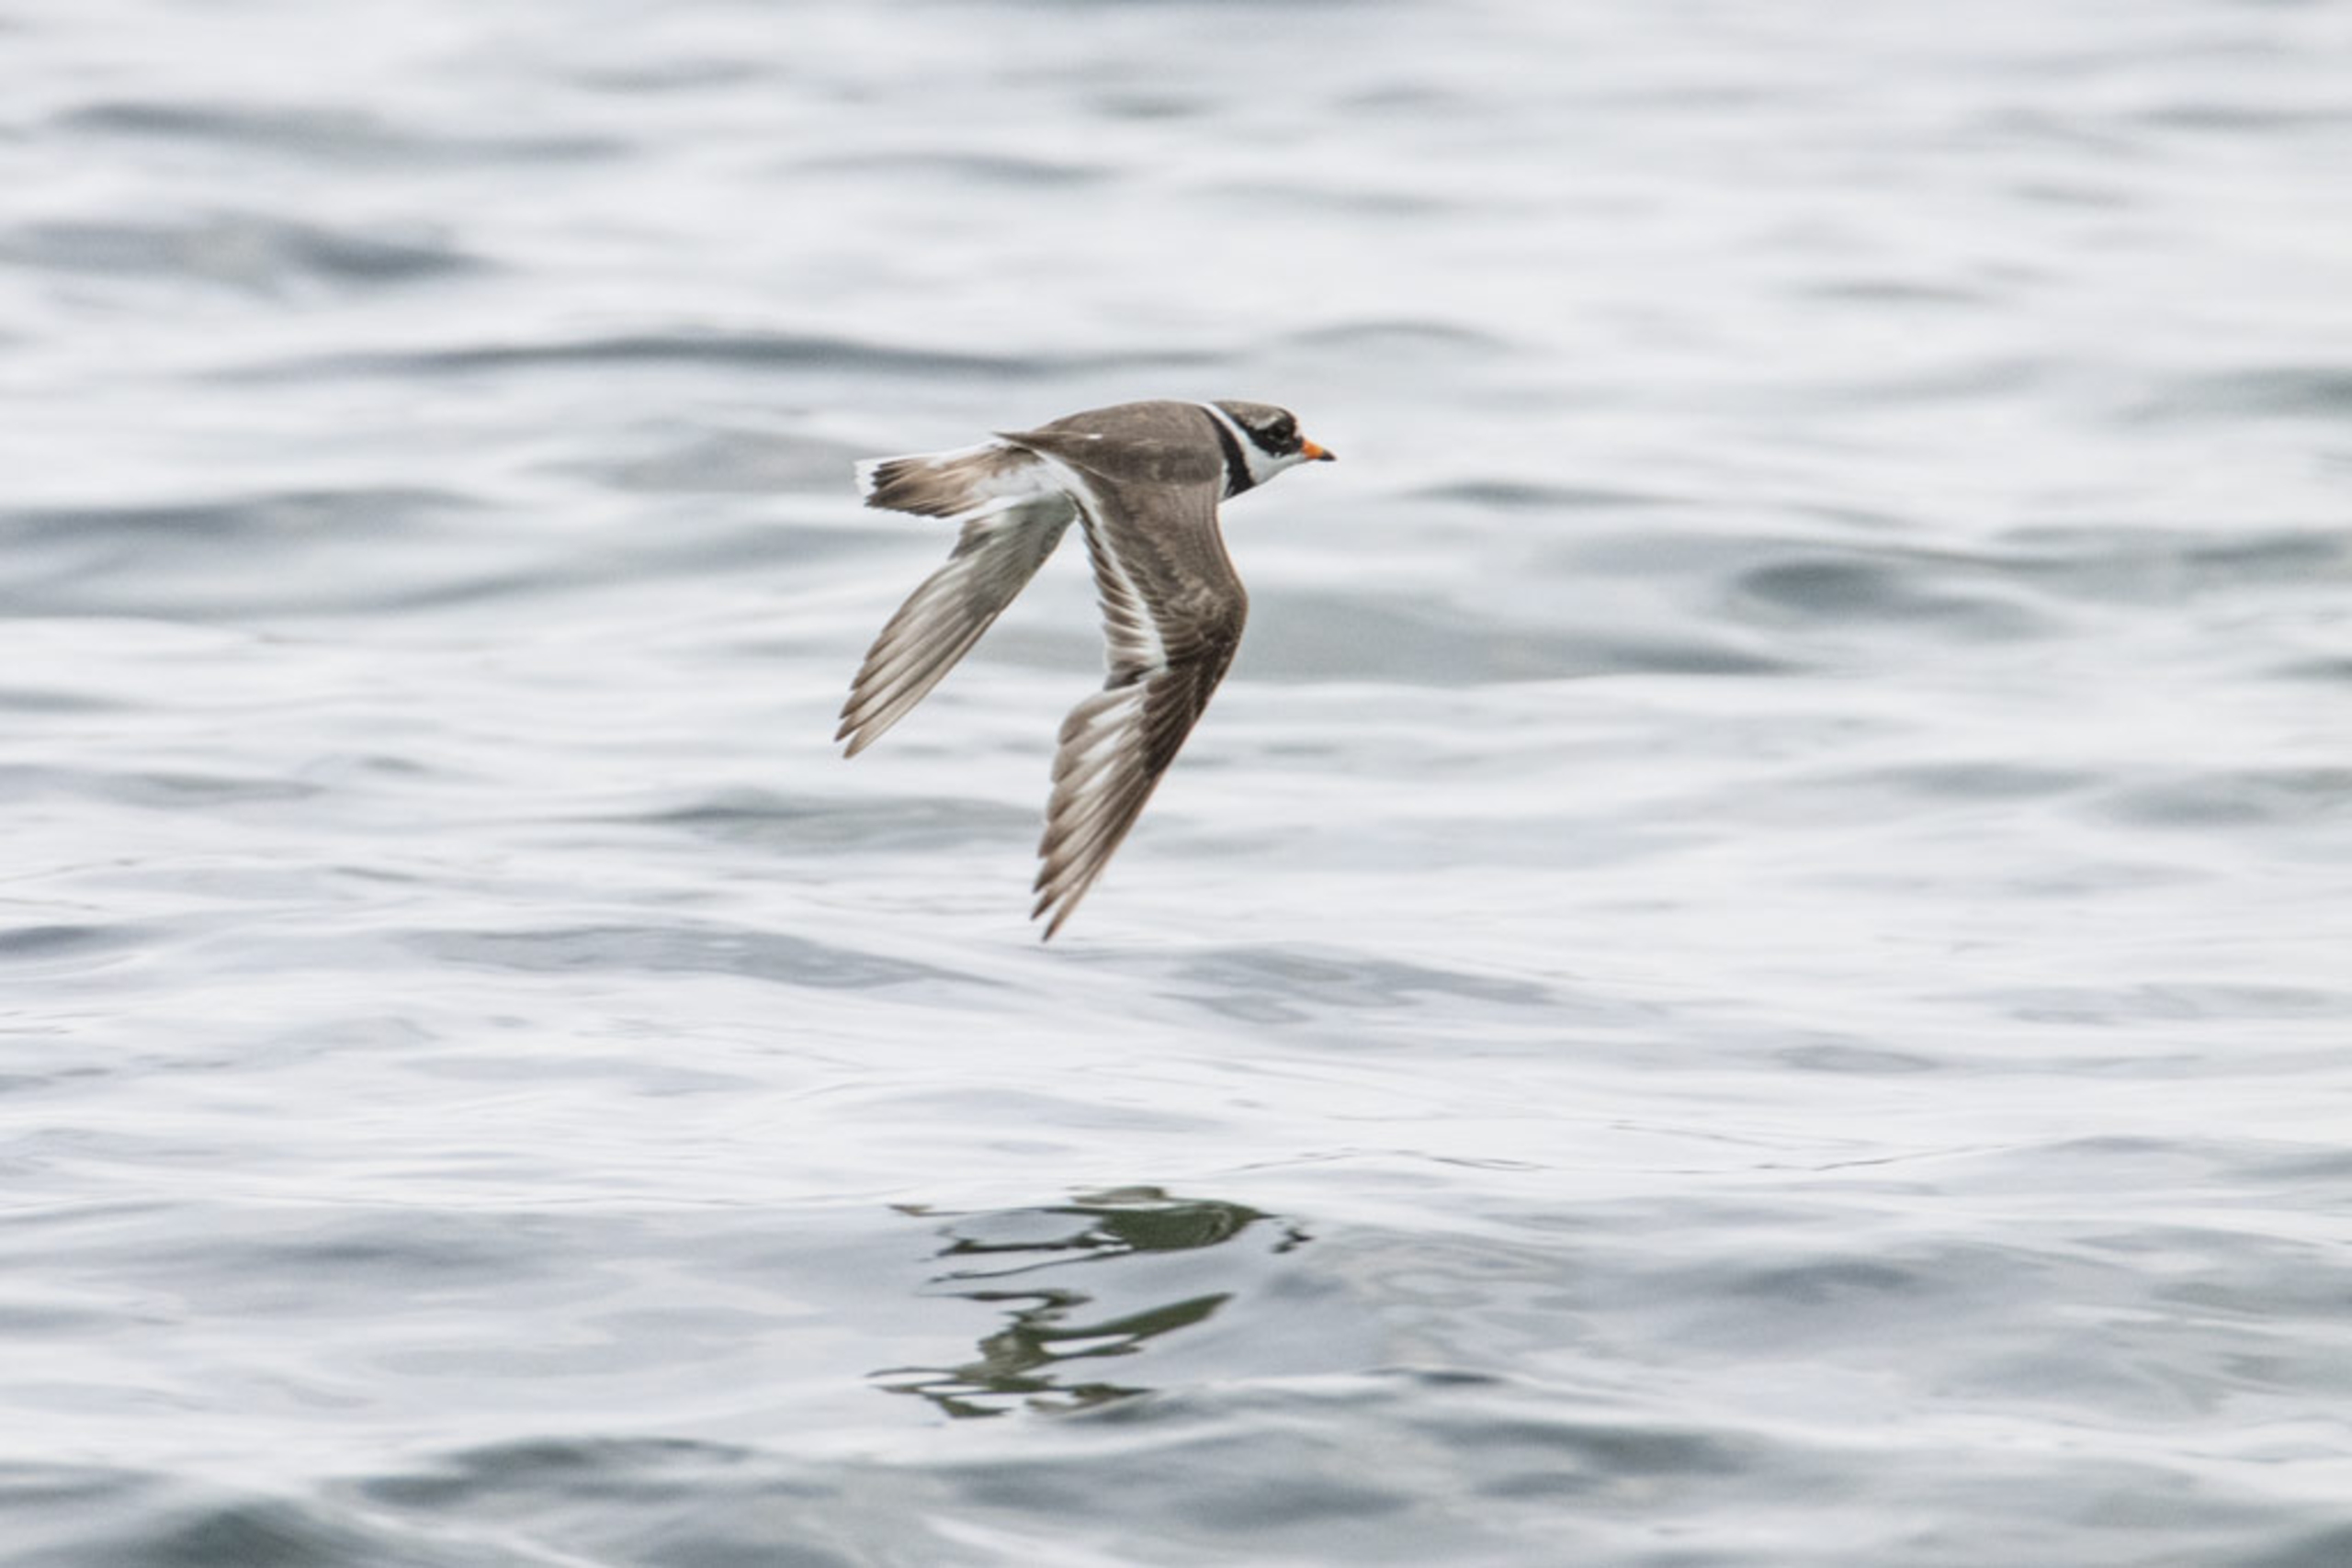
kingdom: Animalia
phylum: Chordata
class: Aves
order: Charadriiformes
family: Charadriidae
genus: Charadrius
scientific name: Charadrius hiaticula
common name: Stor præstekrave
